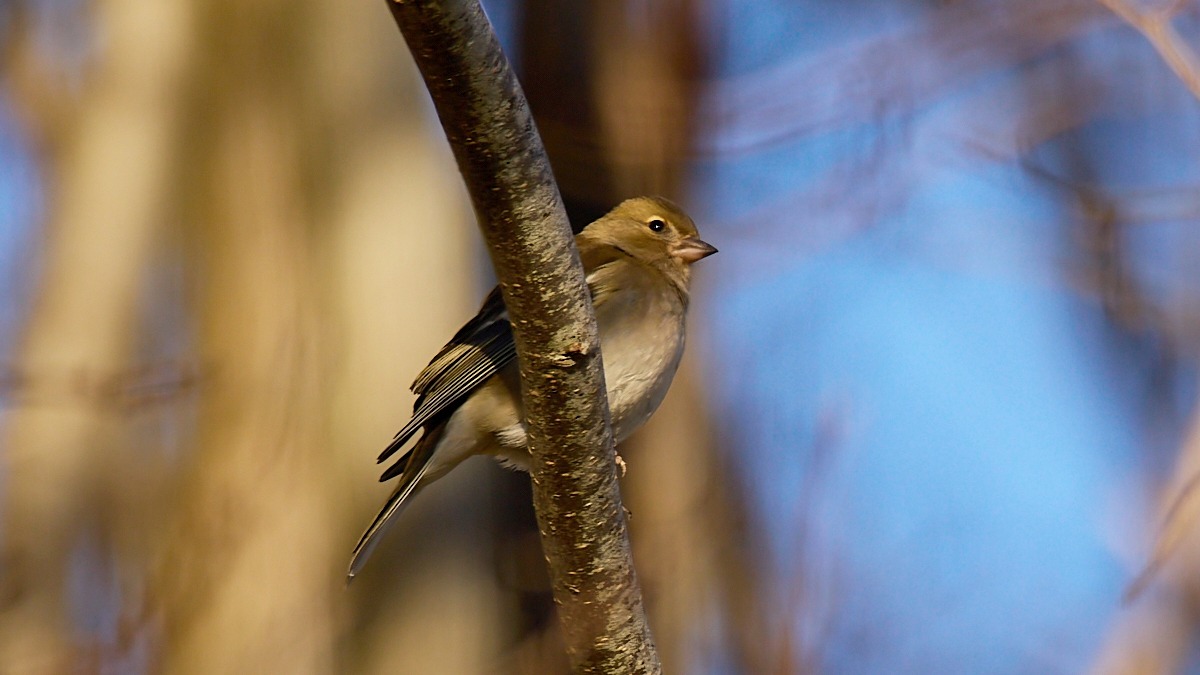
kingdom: Animalia
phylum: Chordata
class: Aves
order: Passeriformes
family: Fringillidae
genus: Fringilla
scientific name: Fringilla coelebs
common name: Bogfinke
